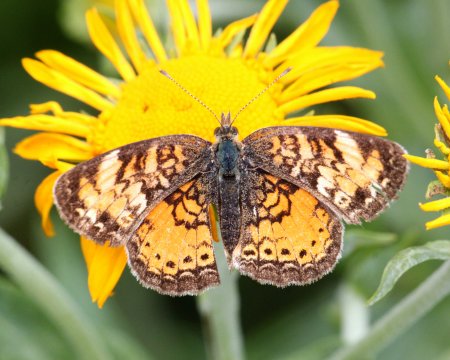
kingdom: Animalia
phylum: Arthropoda
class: Insecta
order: Lepidoptera
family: Nymphalidae
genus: Phyciodes
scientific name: Phyciodes tharos
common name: Northern Crescent
